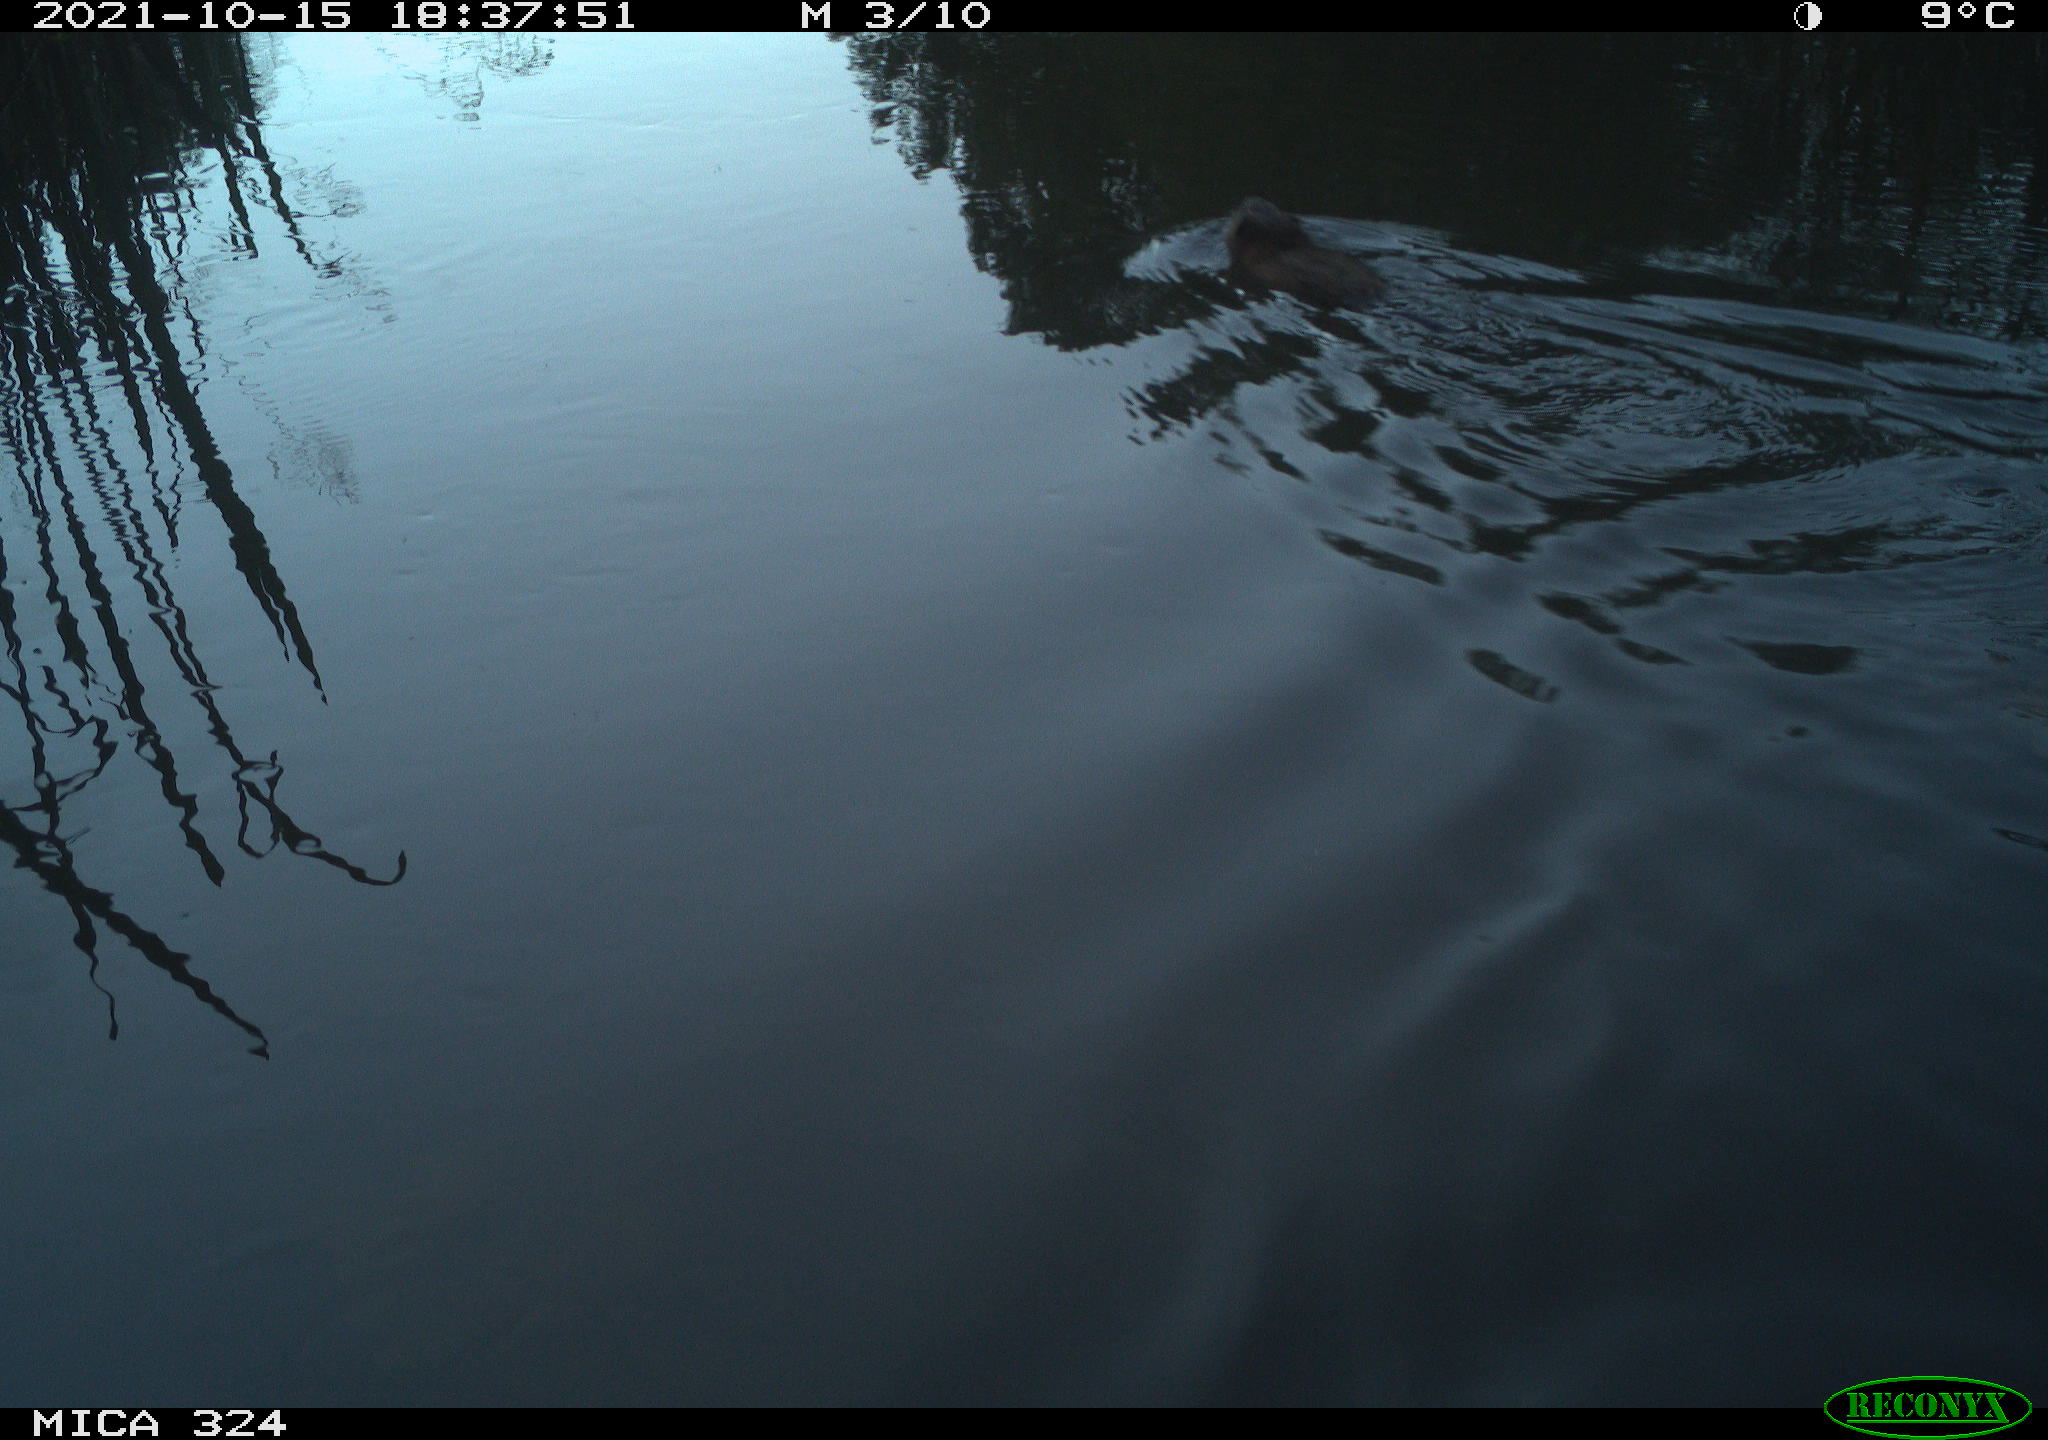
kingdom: Animalia
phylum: Chordata
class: Mammalia
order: Rodentia
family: Cricetidae
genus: Ondatra
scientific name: Ondatra zibethicus
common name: Muskrat
